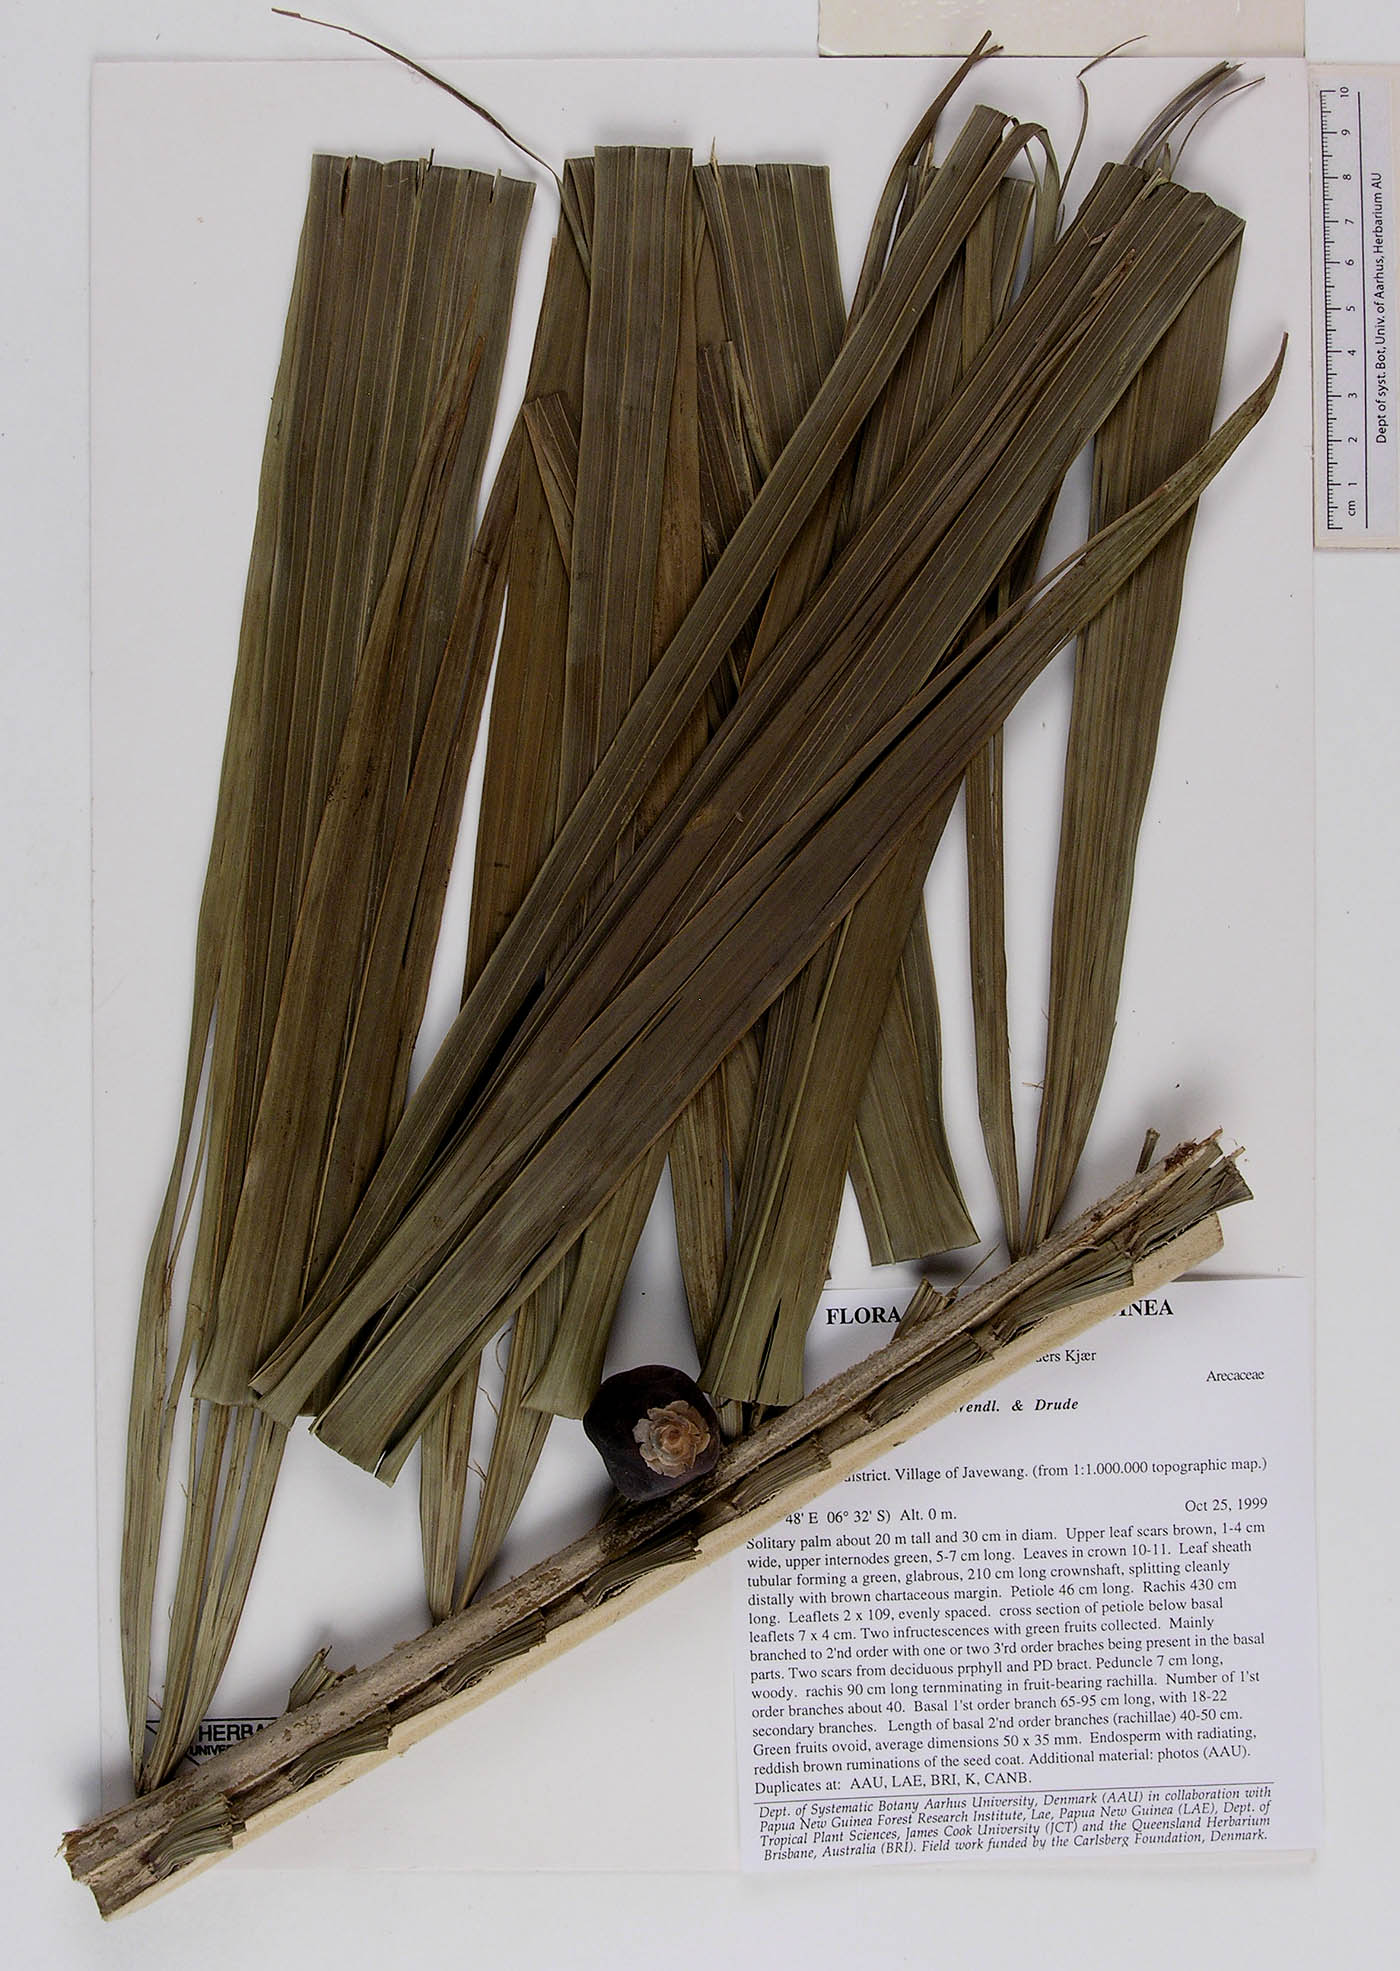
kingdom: Plantae
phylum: Tracheophyta
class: Liliopsida
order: Arecales
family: Arecaceae
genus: Actinorhytis
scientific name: Actinorhytis calapparia
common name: Calappa palm
